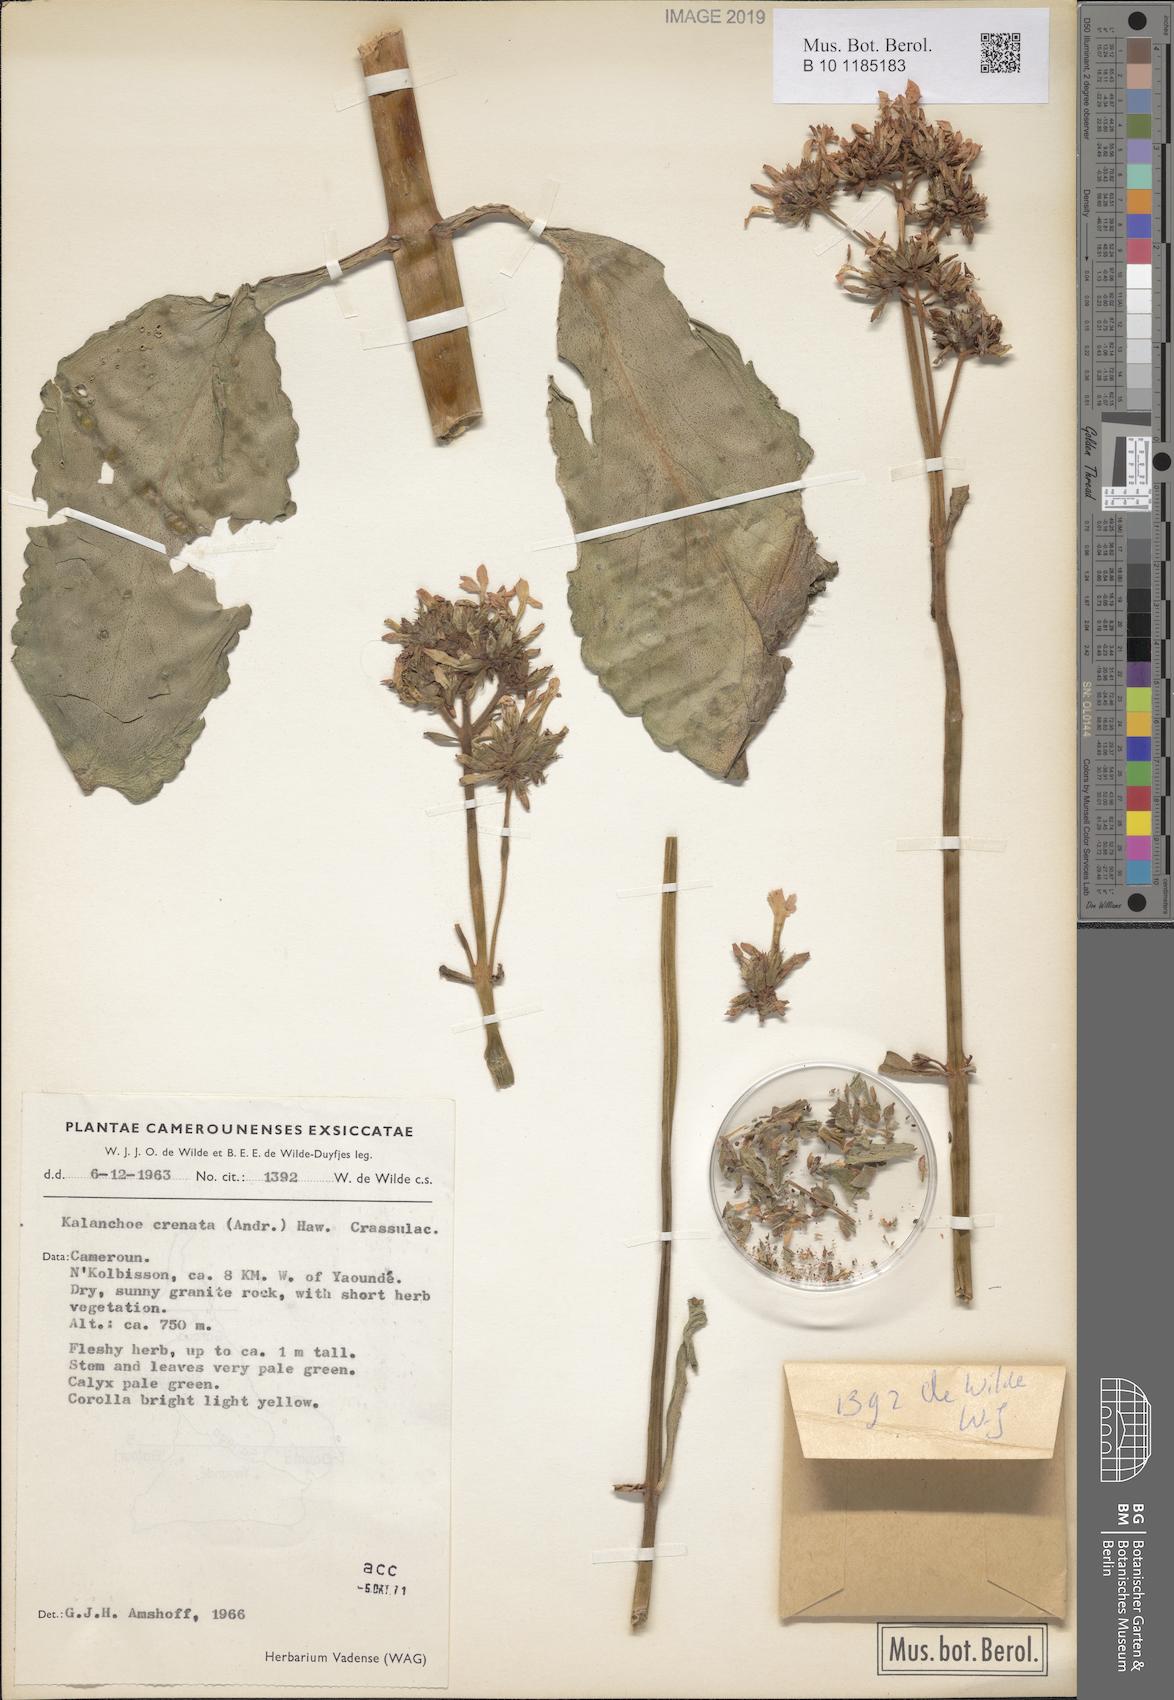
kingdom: Plantae
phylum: Tracheophyta
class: Magnoliopsida
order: Saxifragales
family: Crassulaceae
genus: Kalanchoe
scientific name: Kalanchoe crenata
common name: Neverdie
